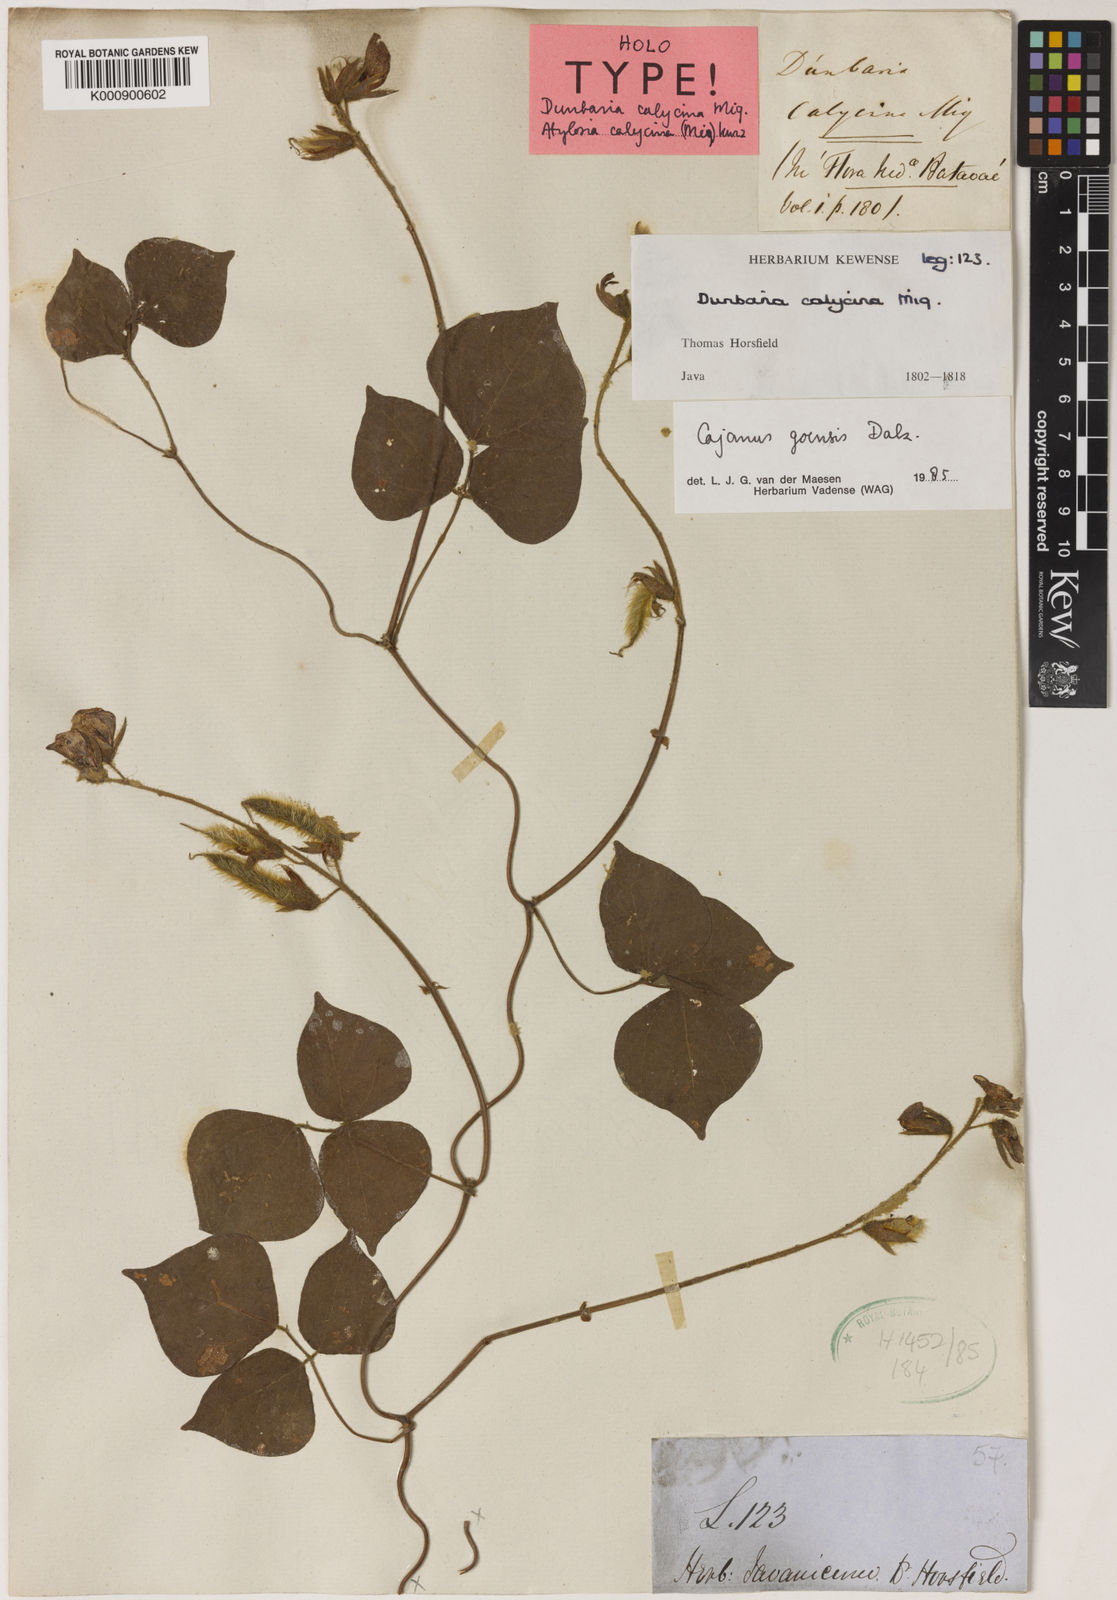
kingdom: Plantae
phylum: Tracheophyta
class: Magnoliopsida
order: Fabales
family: Fabaceae
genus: Cajanus
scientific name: Cajanus goensis
